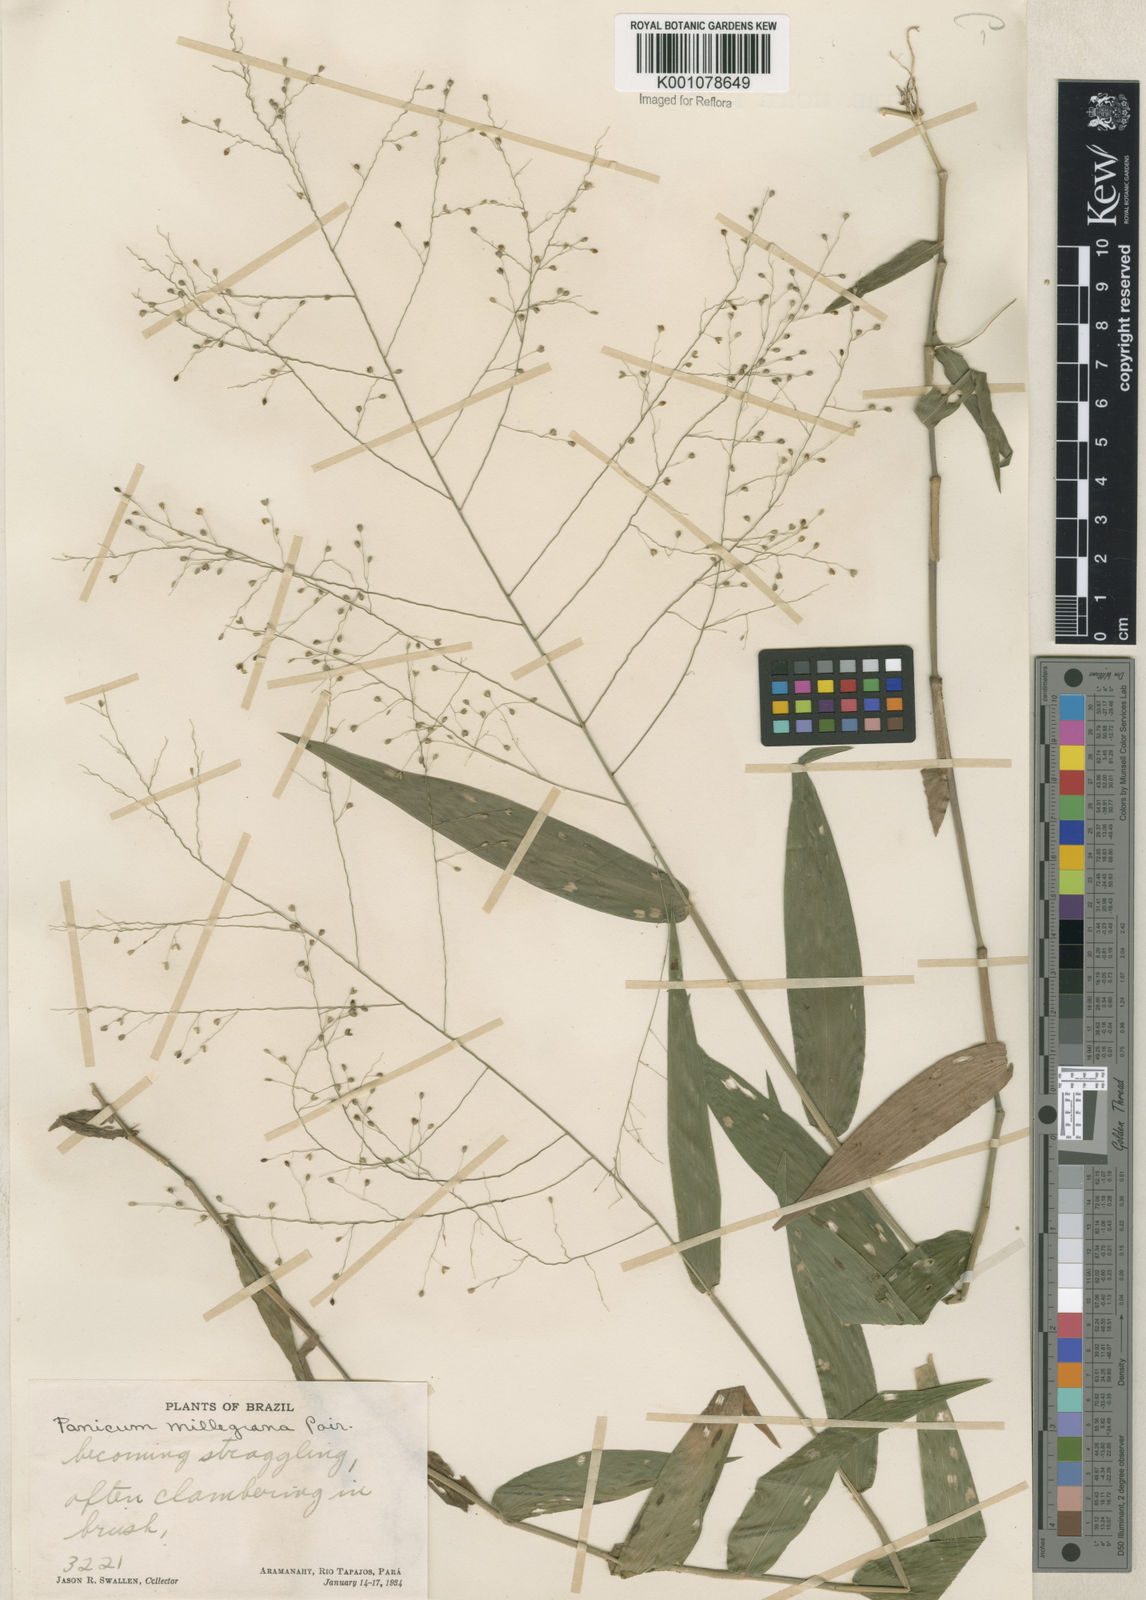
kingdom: Plantae
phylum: Tracheophyta
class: Liliopsida
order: Poales
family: Poaceae
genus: Panicum
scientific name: Panicum millegrana
